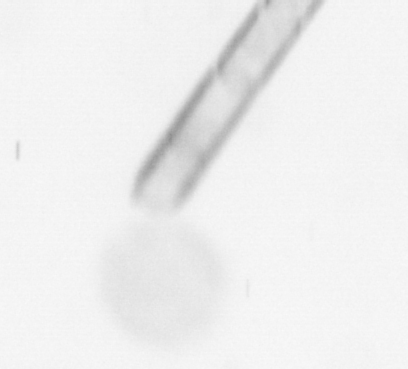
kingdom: Chromista
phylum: Ochrophyta
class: Bacillariophyceae
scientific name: Bacillariophyceae
